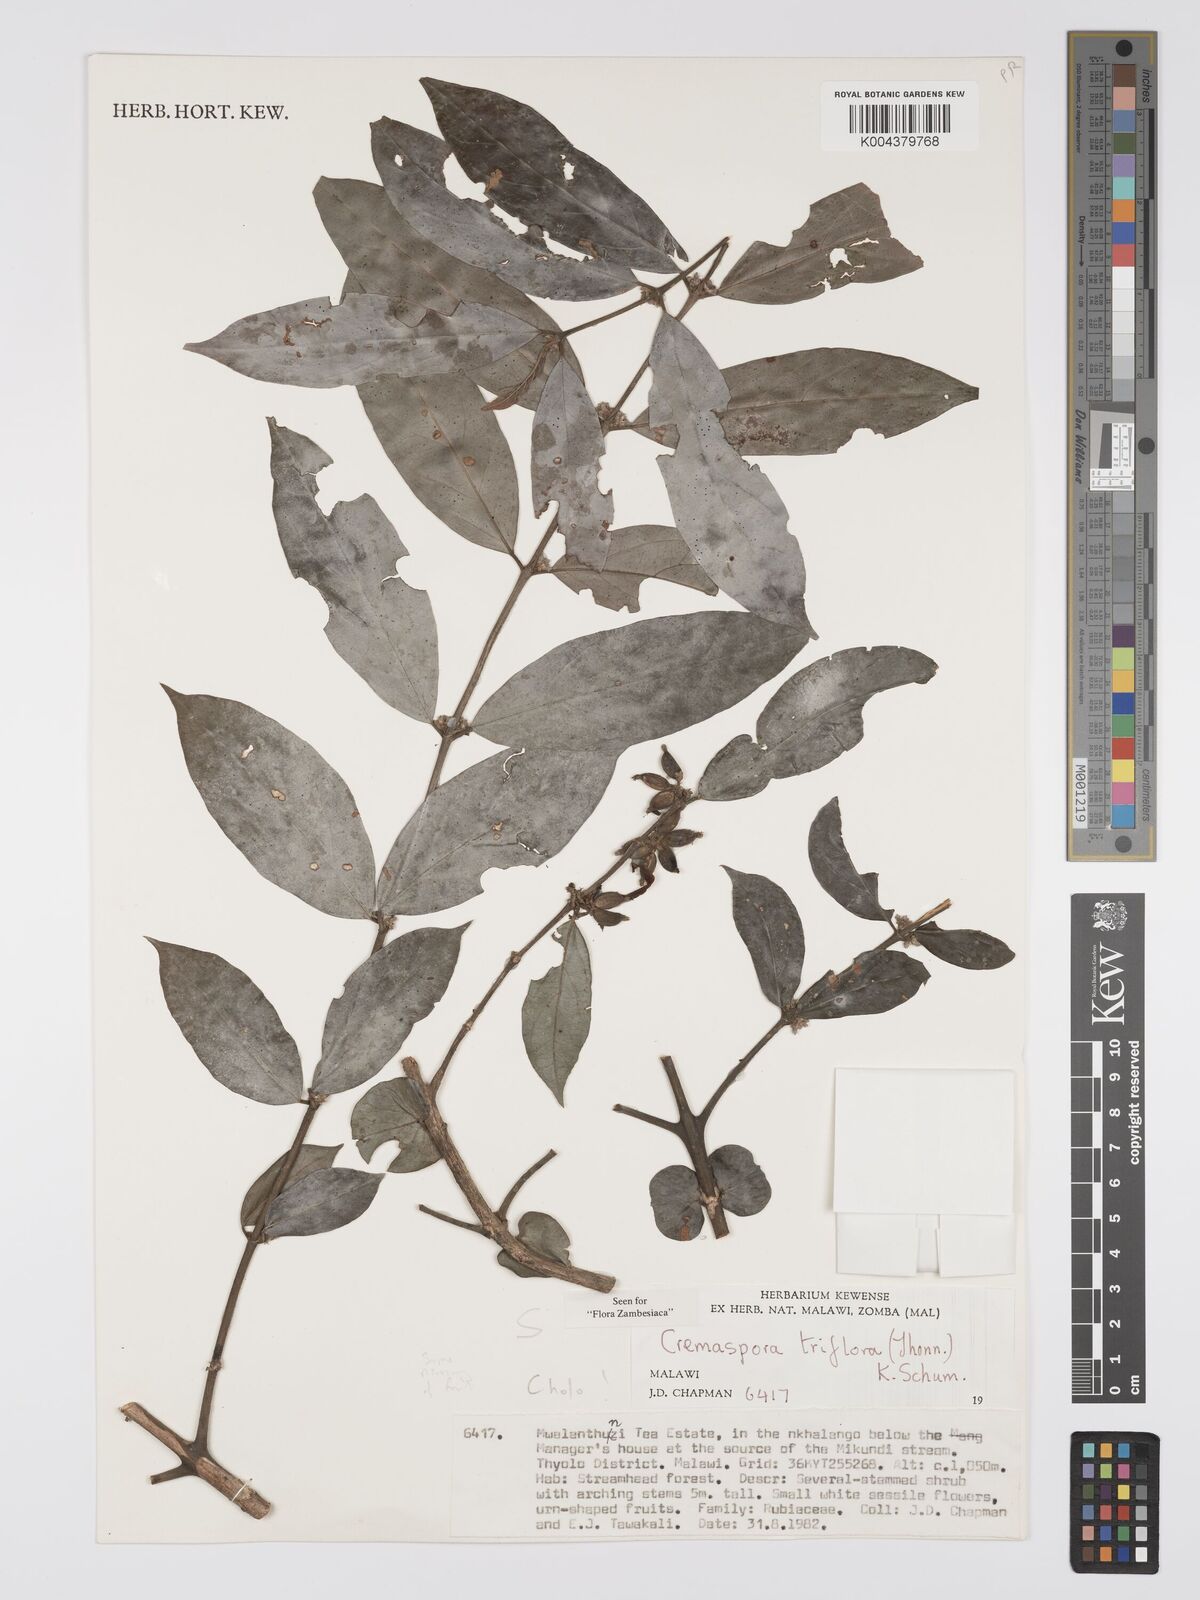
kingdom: Plantae
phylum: Tracheophyta
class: Magnoliopsida
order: Gentianales
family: Rubiaceae
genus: Cremaspora
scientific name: Cremaspora triflora
